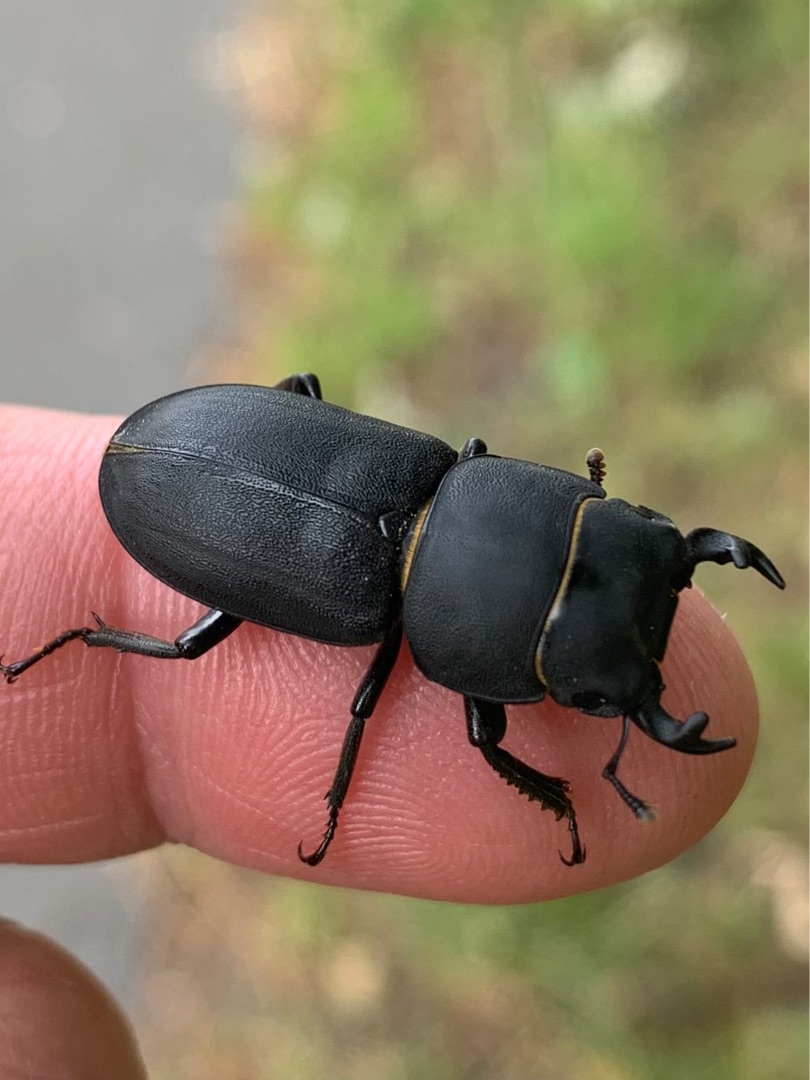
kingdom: Animalia
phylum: Arthropoda
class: Insecta
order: Coleoptera
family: Lucanidae
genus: Dorcus
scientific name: Dorcus parallelipipedus
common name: Bøghjort
